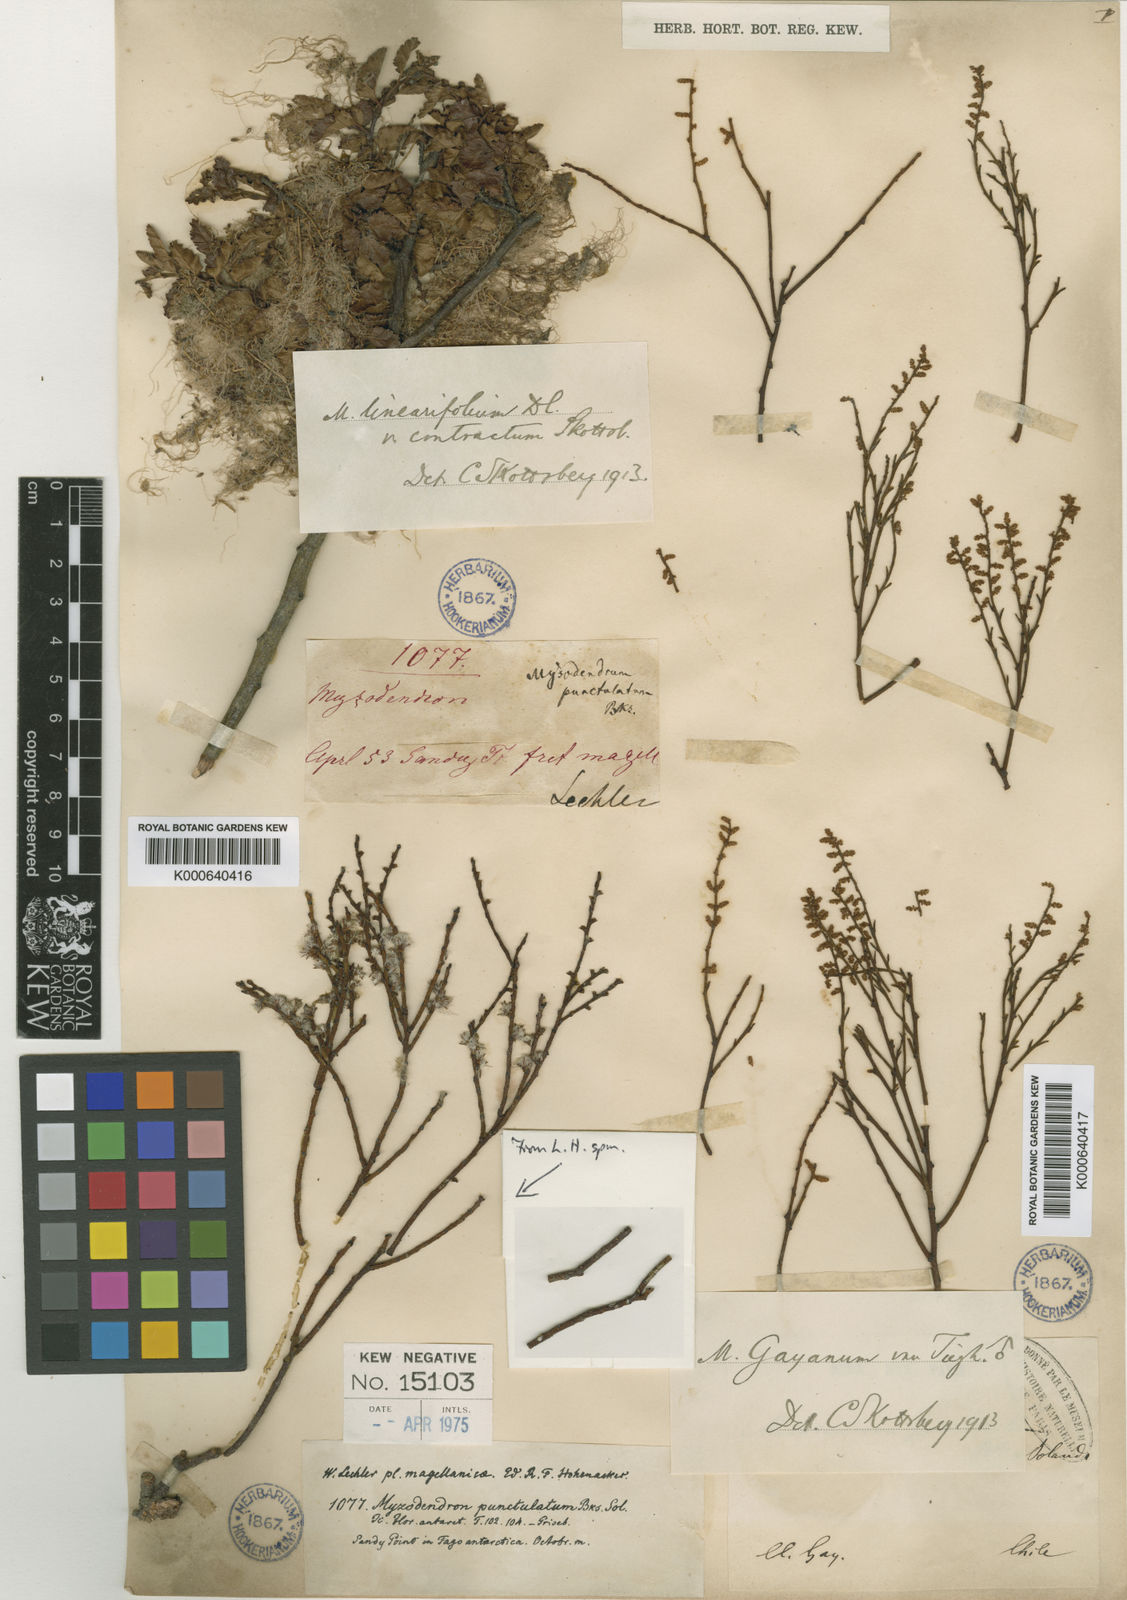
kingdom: Plantae
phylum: Tracheophyta
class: Magnoliopsida
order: Santalales
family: Misodendraceae
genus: Misodendrum
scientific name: Misodendrum gayanum
